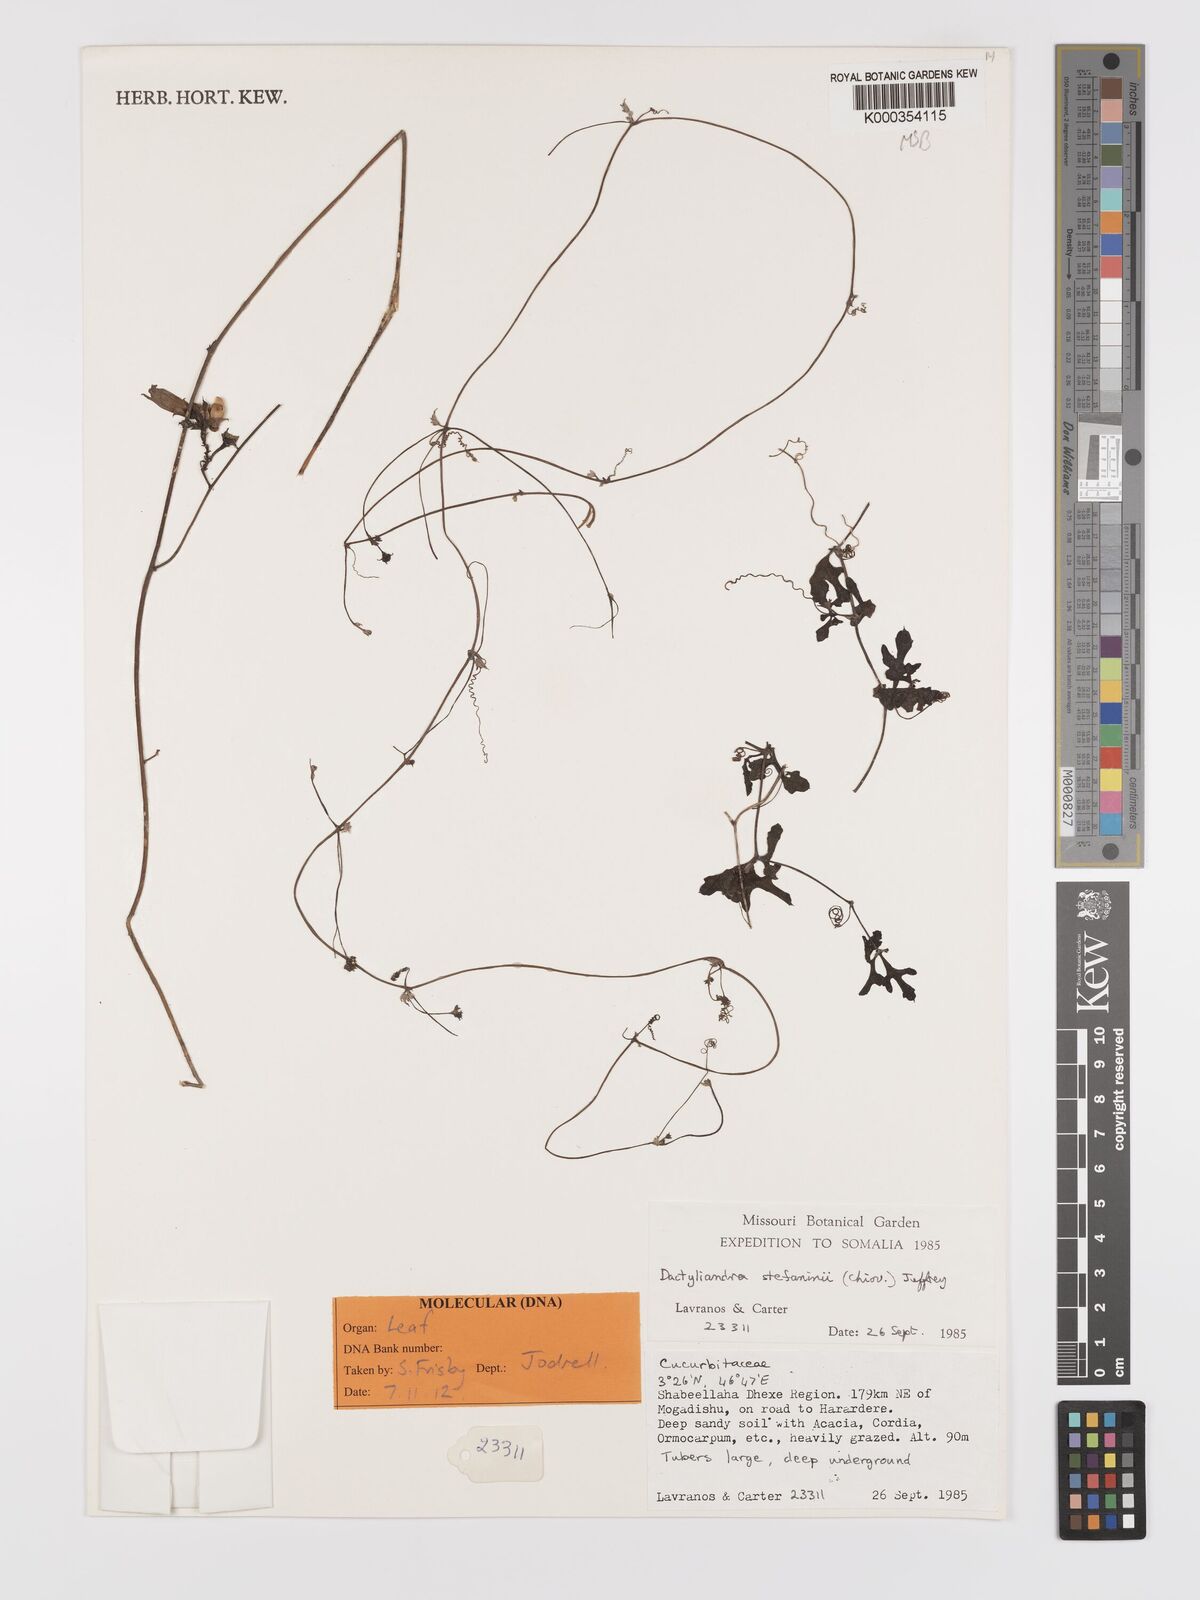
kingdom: Plantae
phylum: Tracheophyta
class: Magnoliopsida
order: Cucurbitales
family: Cucurbitaceae
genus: Dactyliandra
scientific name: Dactyliandra stefaninii
